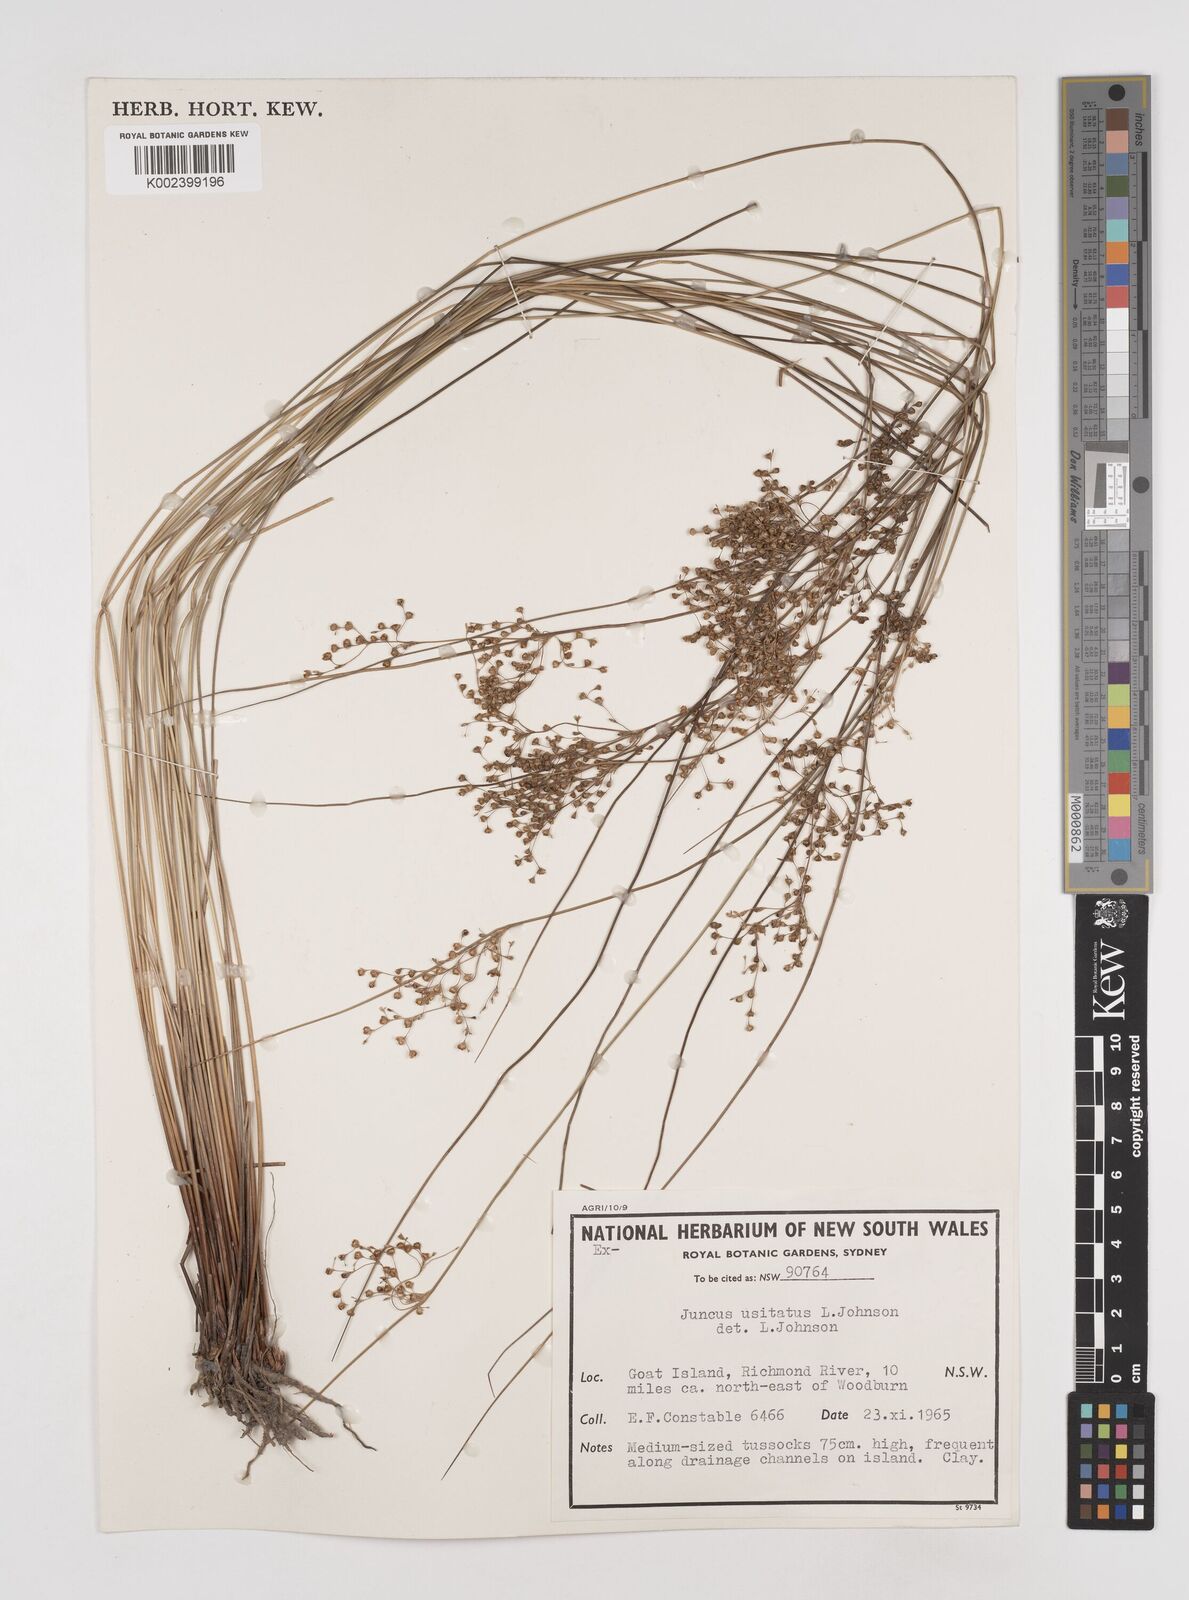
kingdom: Plantae
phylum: Tracheophyta
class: Liliopsida
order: Poales
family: Juncaceae
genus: Juncus
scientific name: Juncus usitatus
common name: Rush
